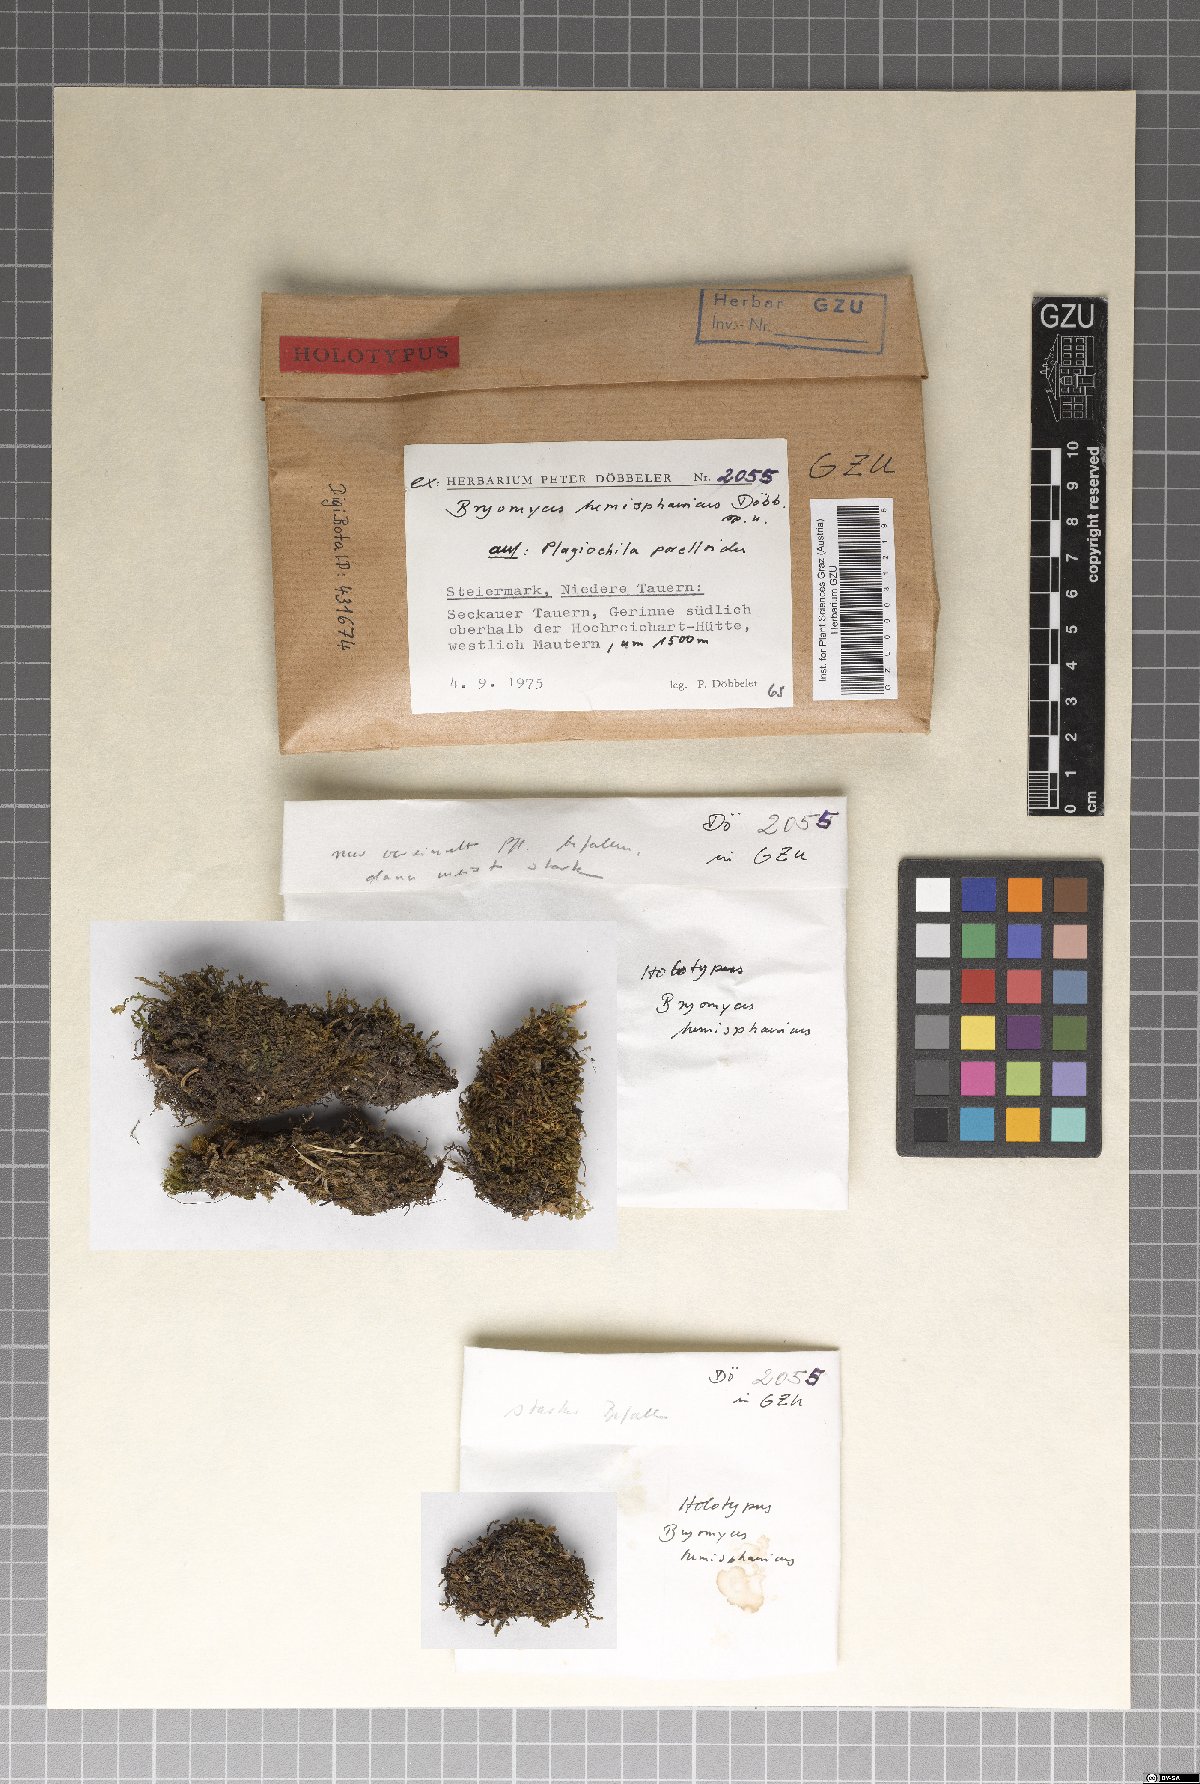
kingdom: Fungi
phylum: Ascomycota
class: Dothideomycetes
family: Pseudoperisporiaceae
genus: Bryomyces
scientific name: Bryomyces hemisphaericus
